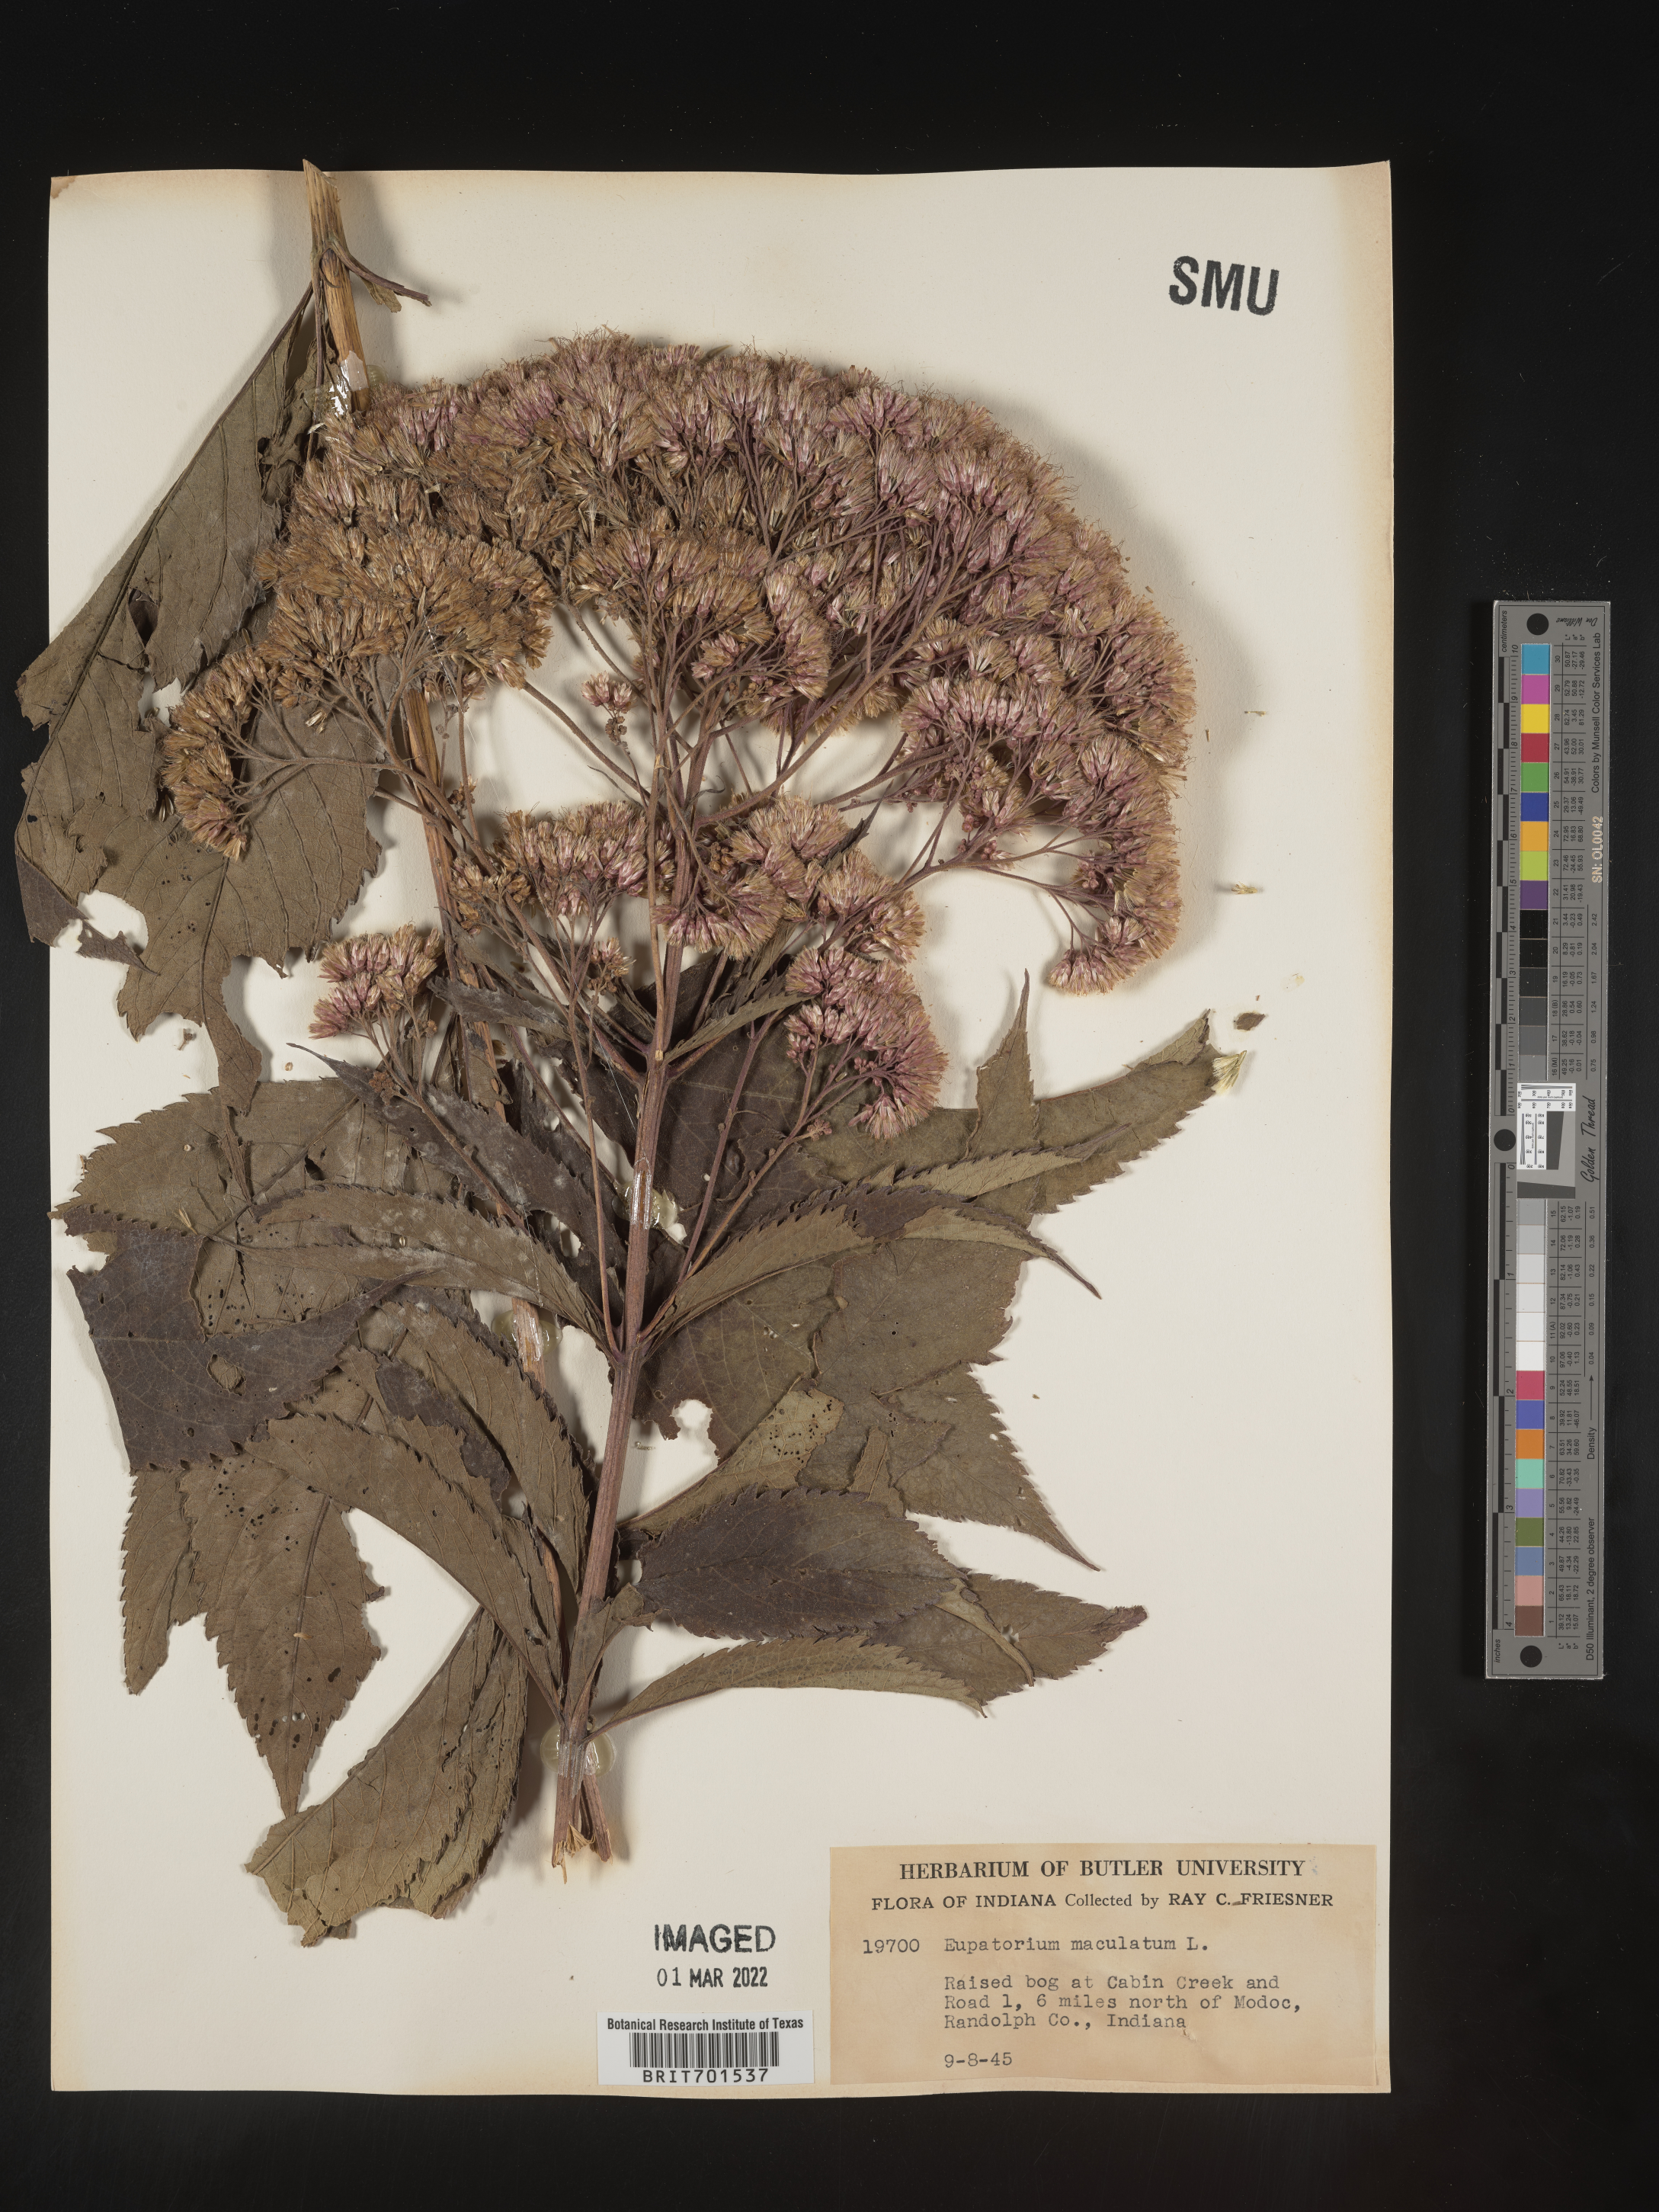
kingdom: Plantae
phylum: Tracheophyta
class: Magnoliopsida
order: Asterales
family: Asteraceae
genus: Eutrochium
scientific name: Eutrochium maculatum
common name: Spotted joe pye weed
